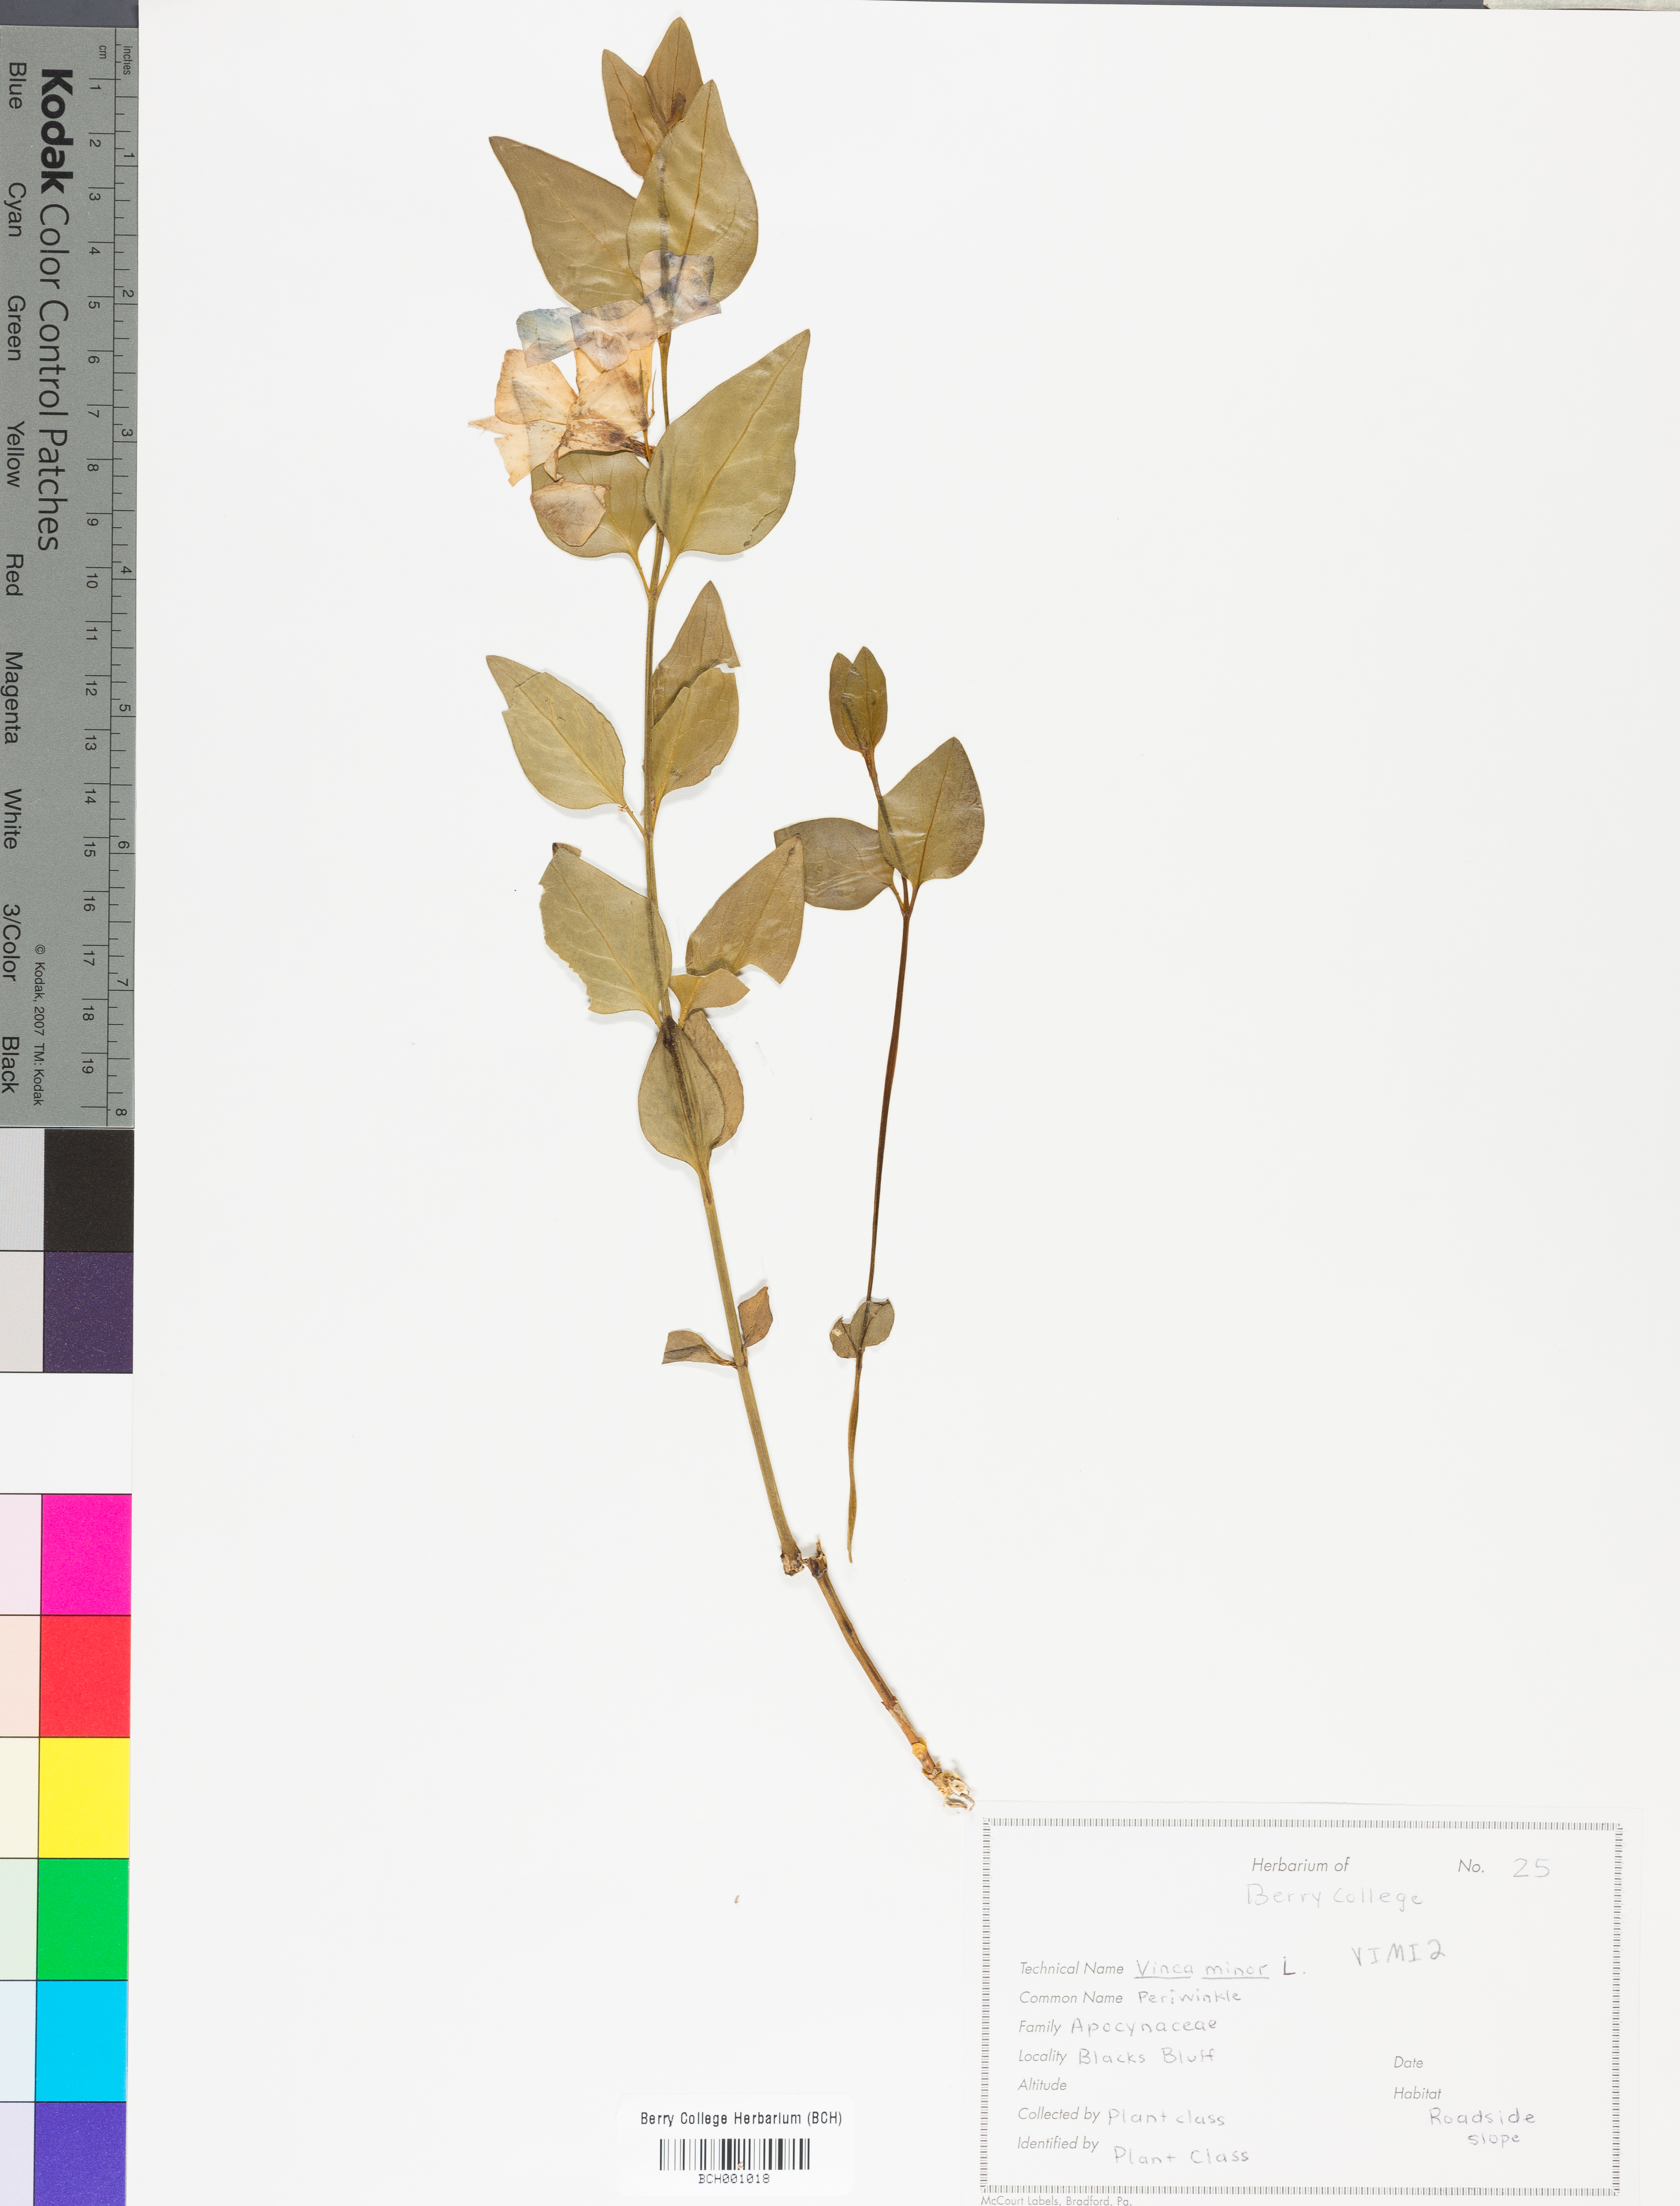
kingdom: Plantae
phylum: Tracheophyta
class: Magnoliopsida
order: Gentianales
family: Apocynaceae
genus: Vinca
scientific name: Vinca minor
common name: Lesser periwinkle
